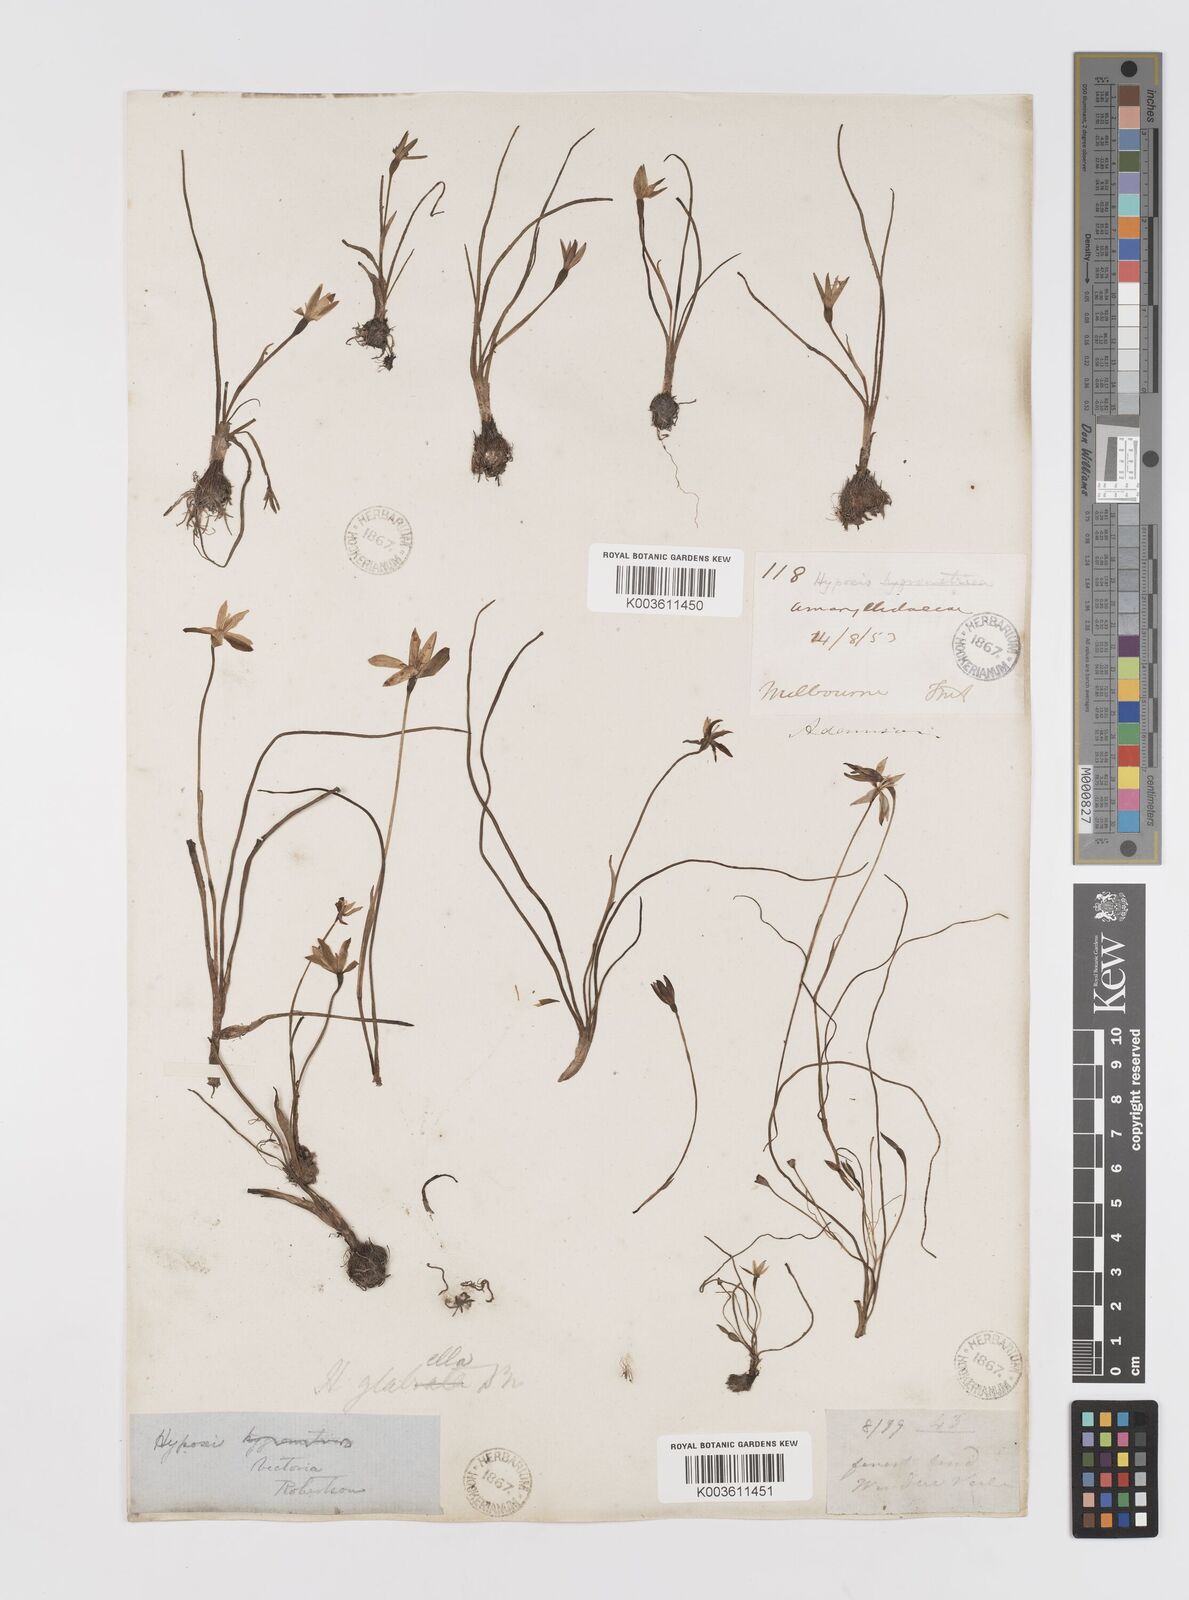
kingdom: Plantae
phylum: Tracheophyta
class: Liliopsida
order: Asparagales
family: Hypoxidaceae
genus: Pauridia
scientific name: Pauridia glabella
